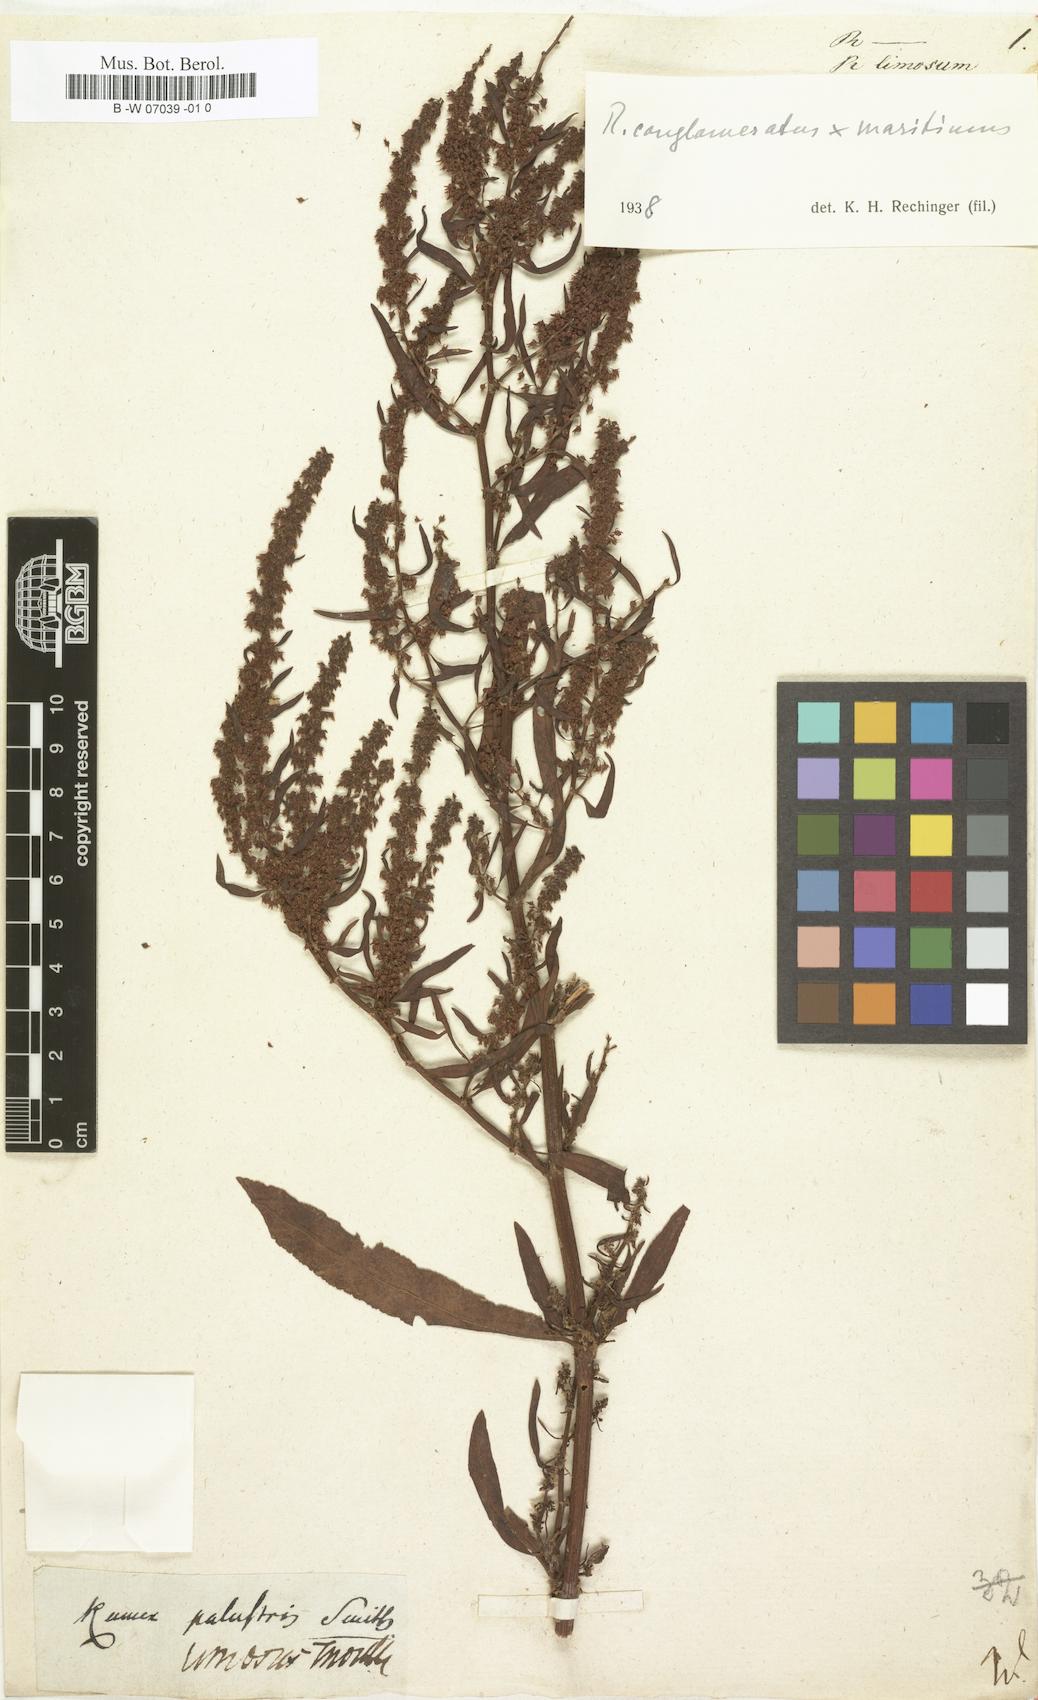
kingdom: Plantae
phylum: Tracheophyta
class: Magnoliopsida
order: Caryophyllales
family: Polygonaceae
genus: Rumex
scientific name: Rumex
